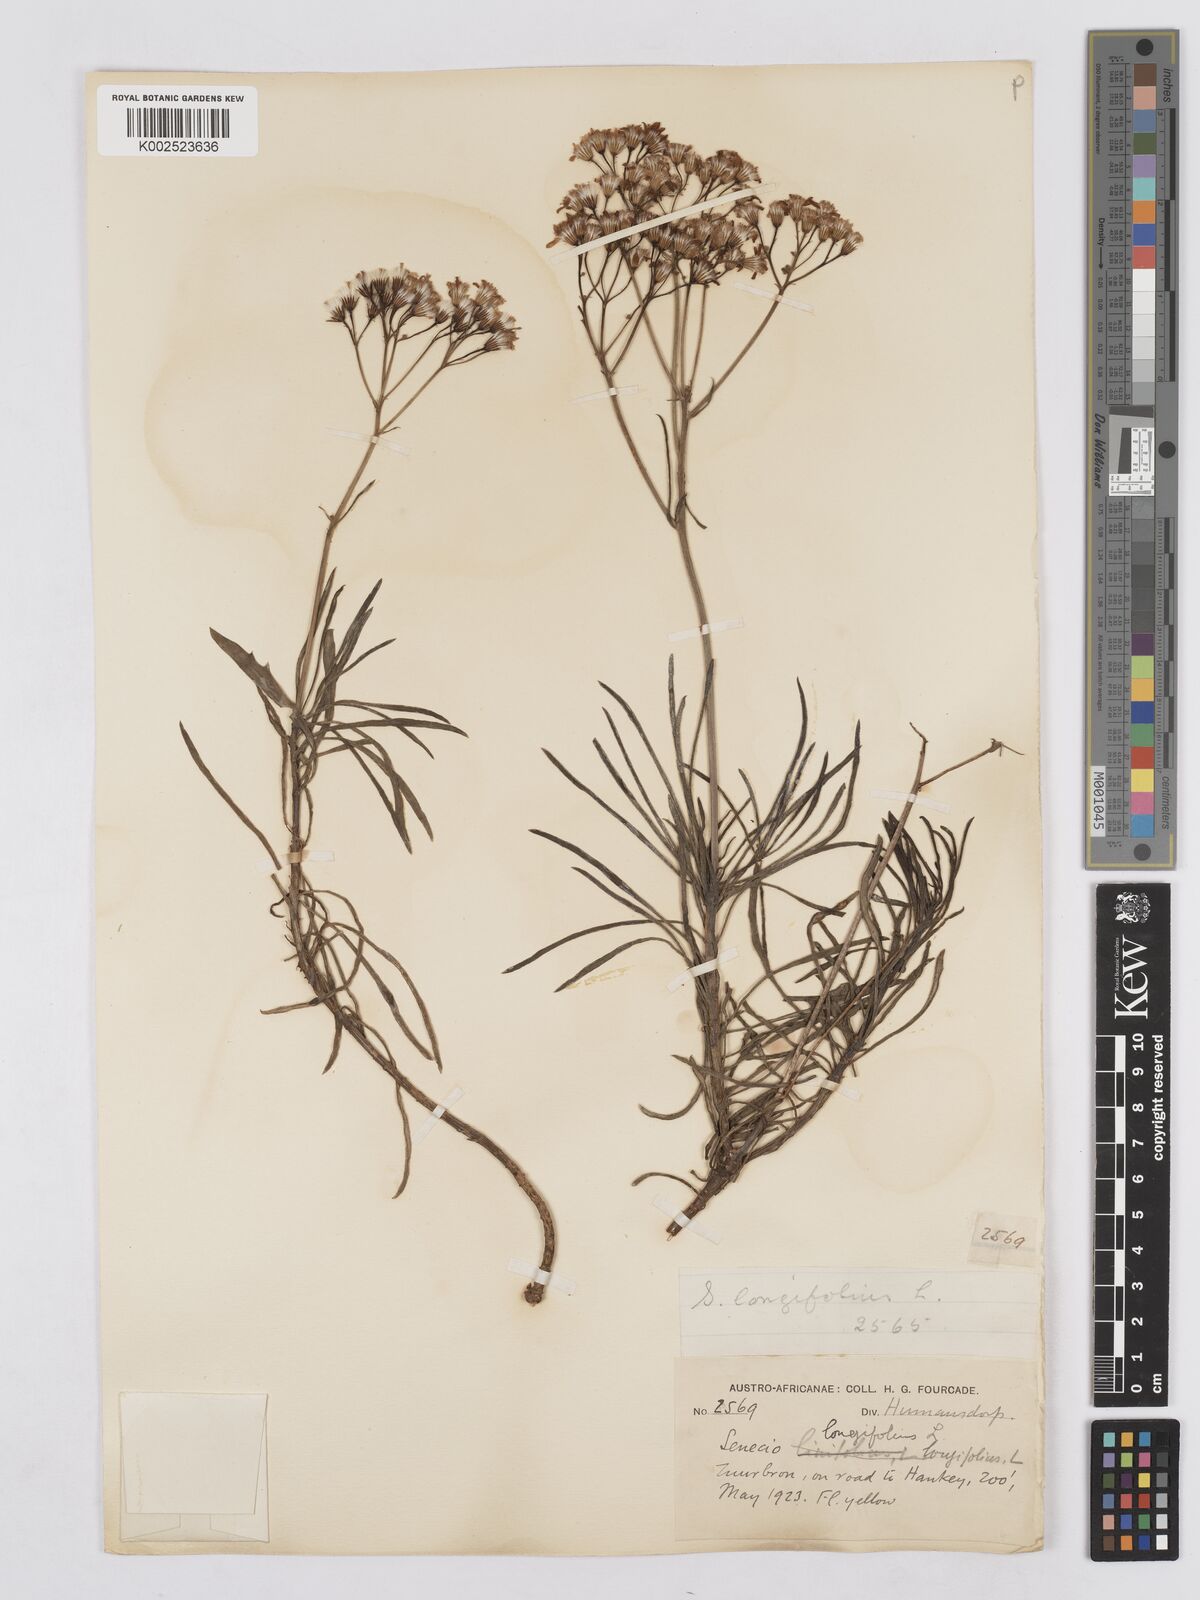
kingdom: Plantae
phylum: Tracheophyta
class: Magnoliopsida
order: Asterales
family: Asteraceae
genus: Senecio
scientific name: Senecio linifolius
